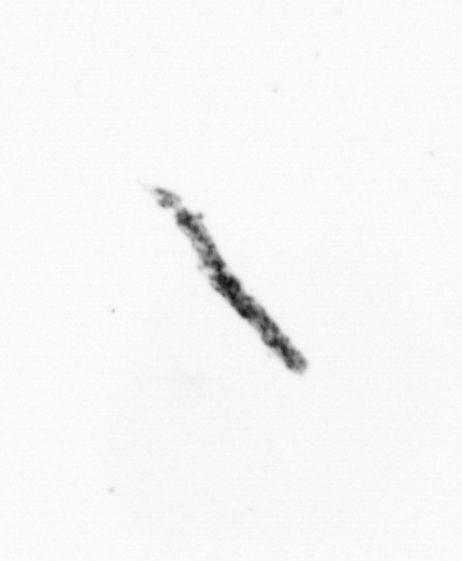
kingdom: Bacteria
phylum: Cyanobacteria
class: Cyanobacteriia
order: Cyanobacteriales
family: Microcoleaceae
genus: Trichodesmium
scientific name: Trichodesmium
